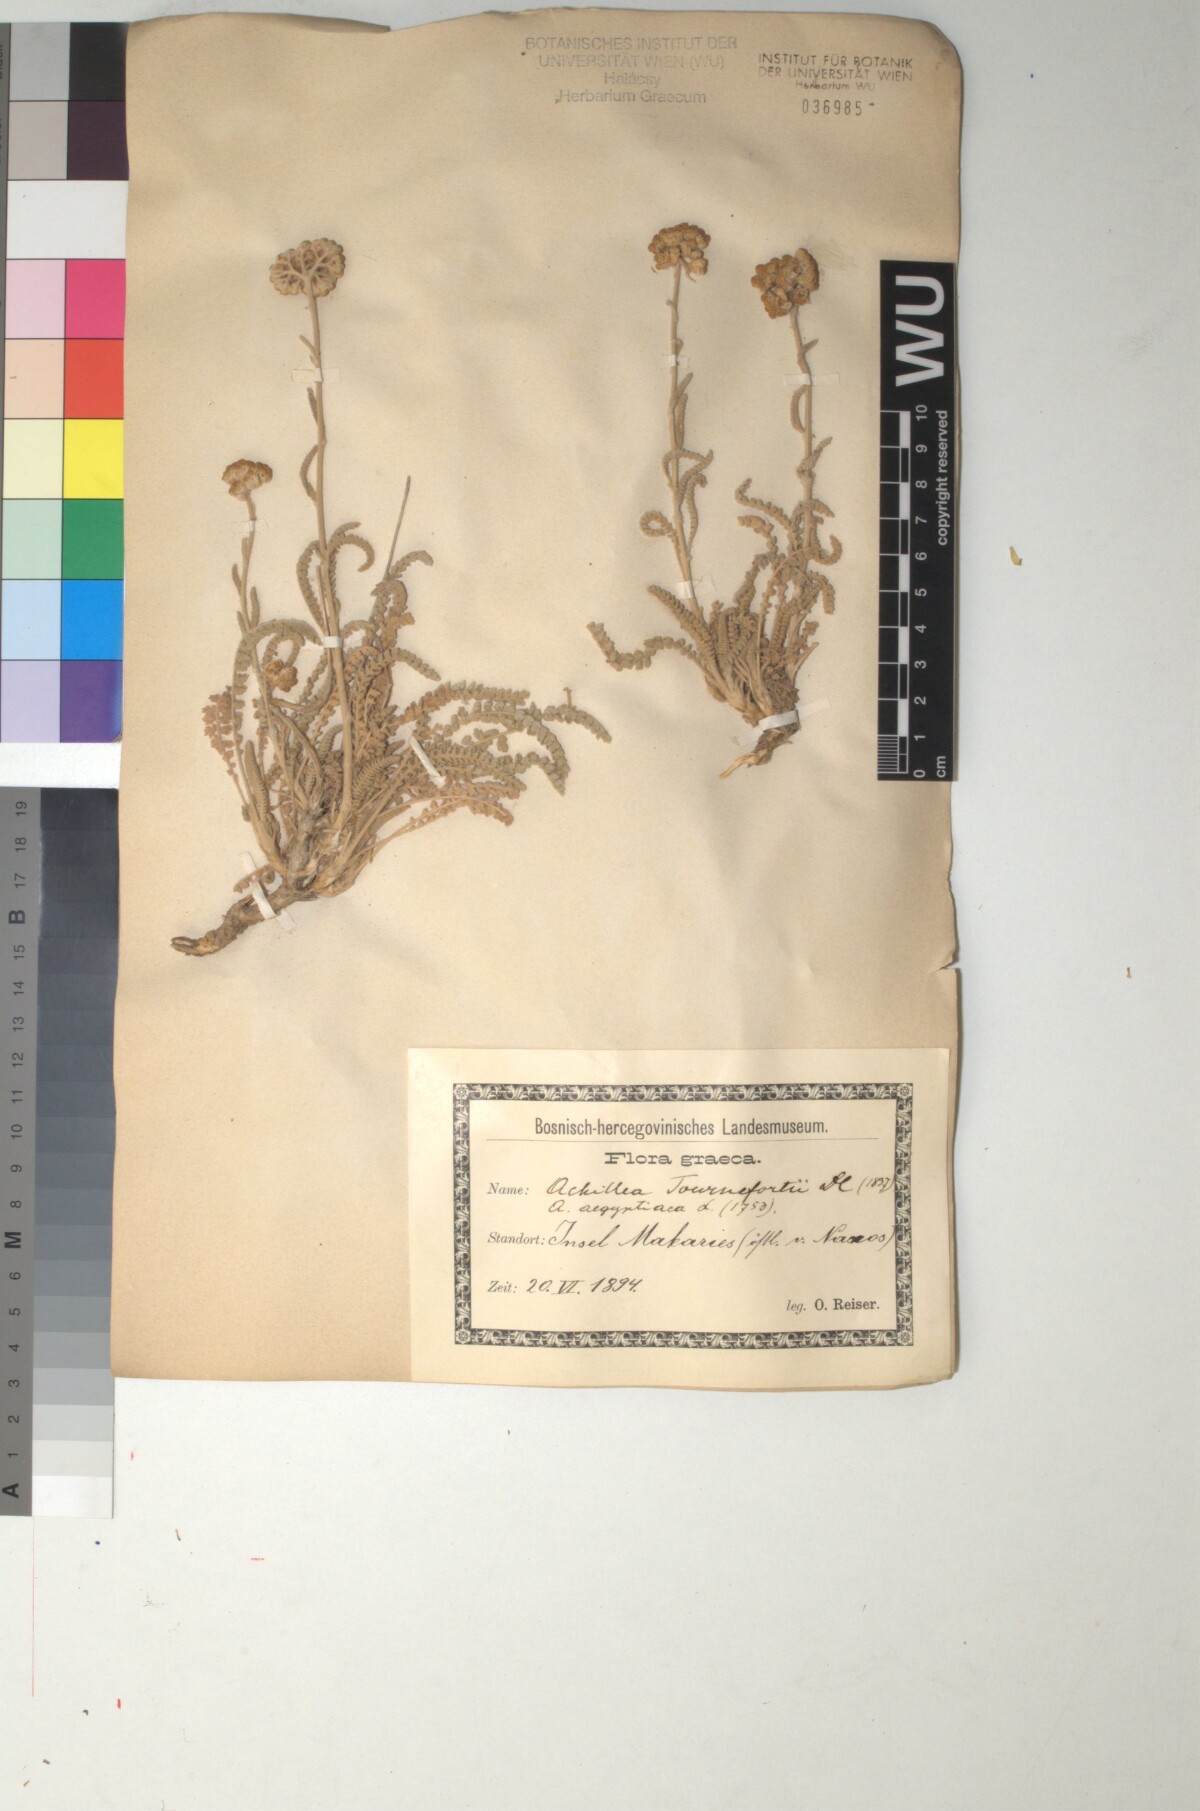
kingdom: Plantae
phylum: Tracheophyta
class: Magnoliopsida
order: Asterales
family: Asteraceae
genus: Achillea
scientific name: Achillea aegyptiaca
